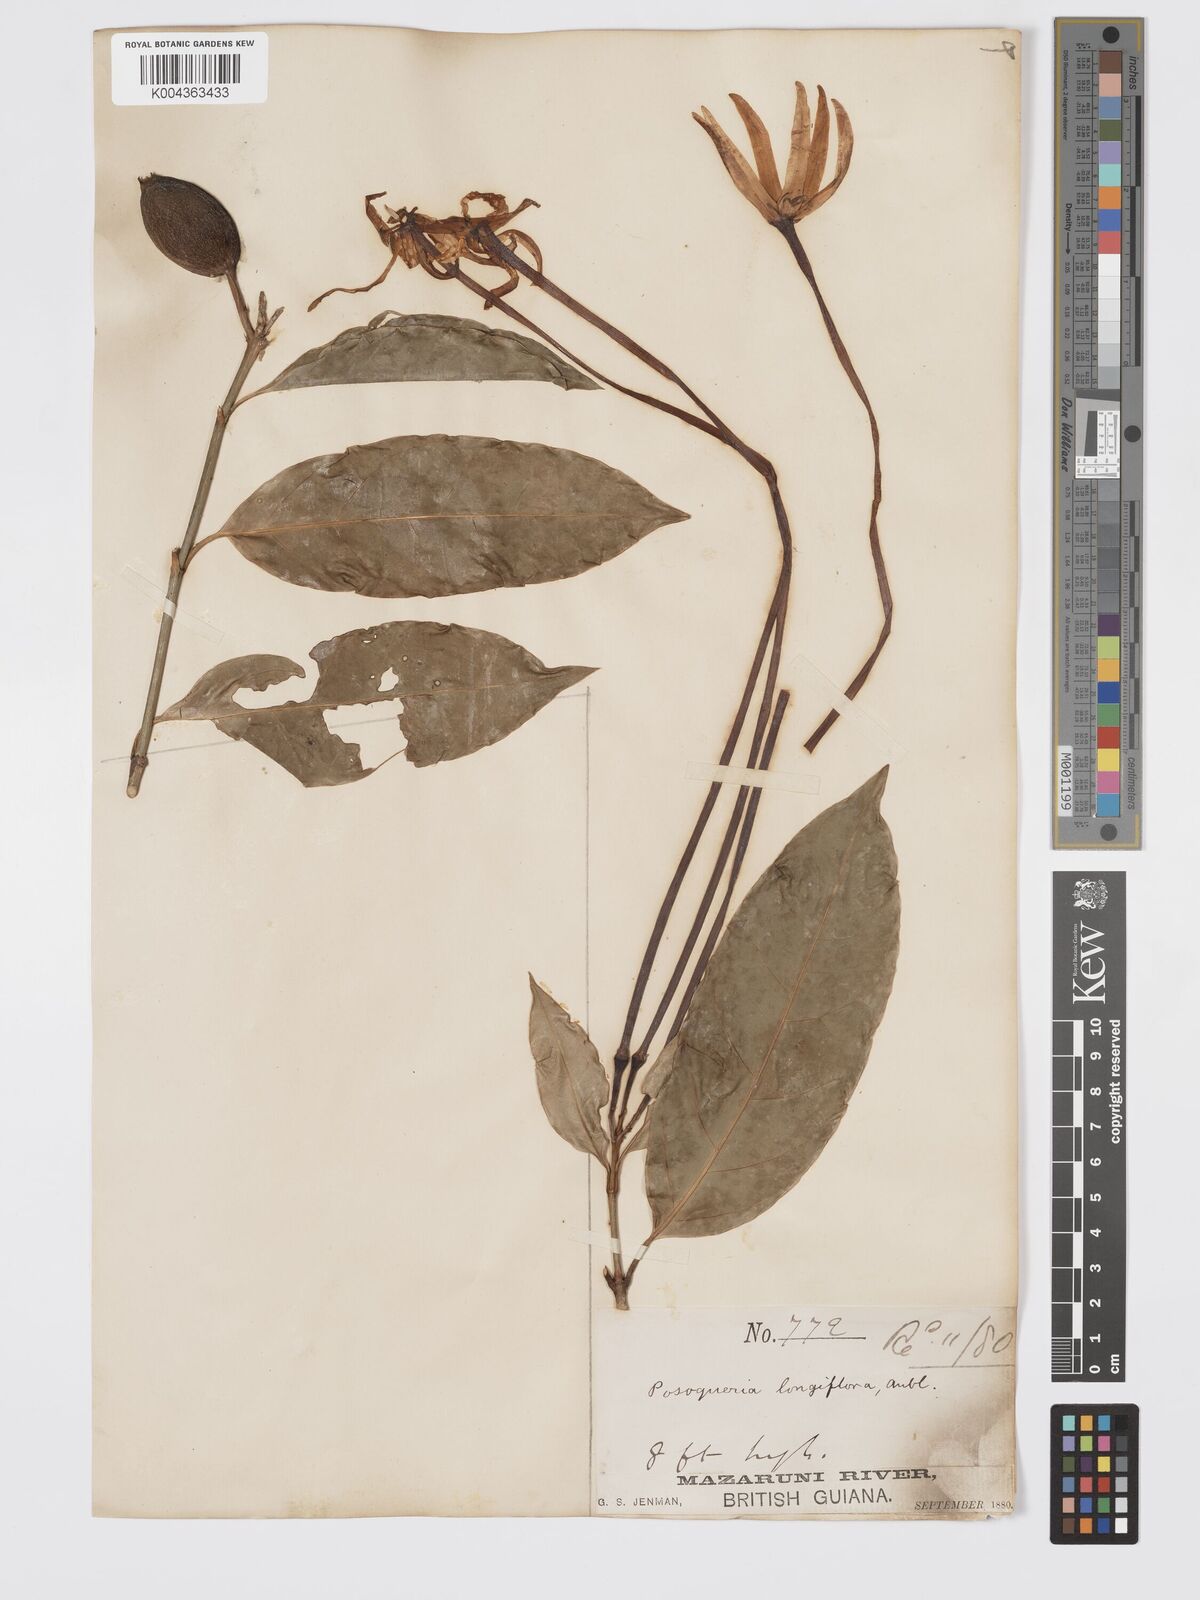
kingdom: Plantae
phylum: Tracheophyta
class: Magnoliopsida
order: Gentianales
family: Rubiaceae
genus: Posoqueria
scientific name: Posoqueria
